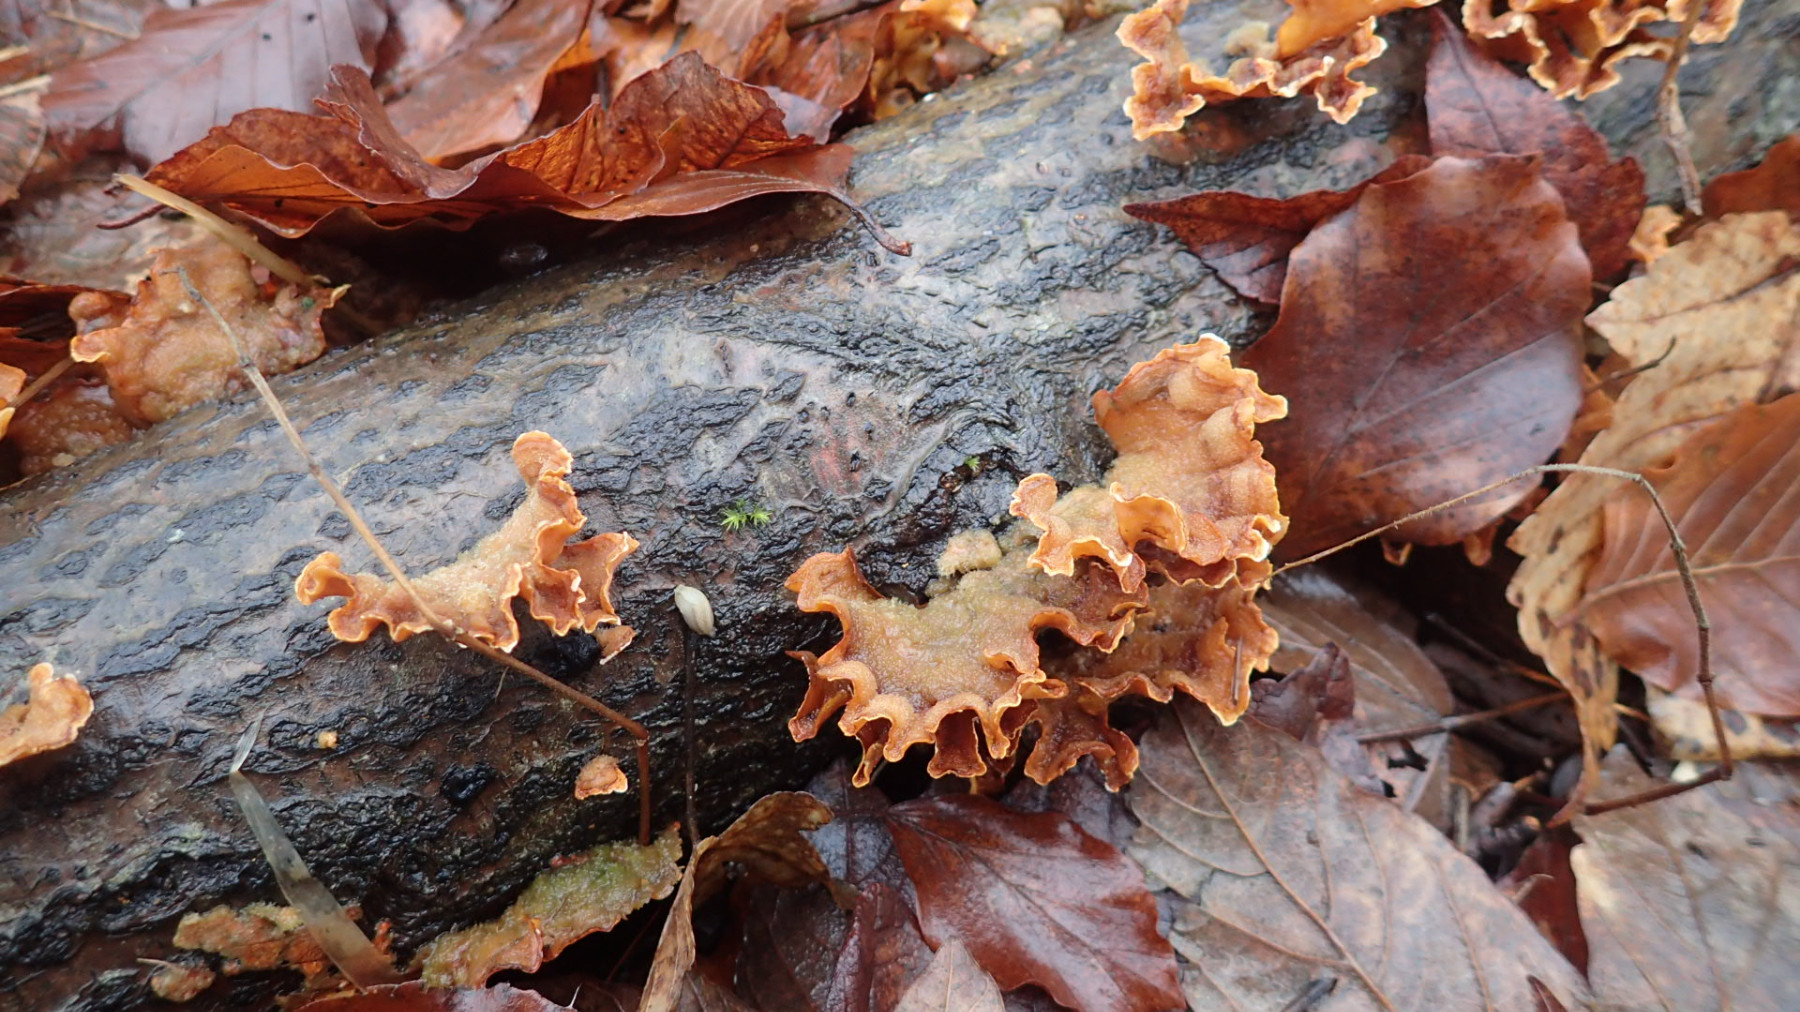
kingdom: Fungi
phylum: Basidiomycota
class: Agaricomycetes
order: Russulales
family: Stereaceae
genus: Stereum
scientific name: Stereum hirsutum
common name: håret lædersvamp
